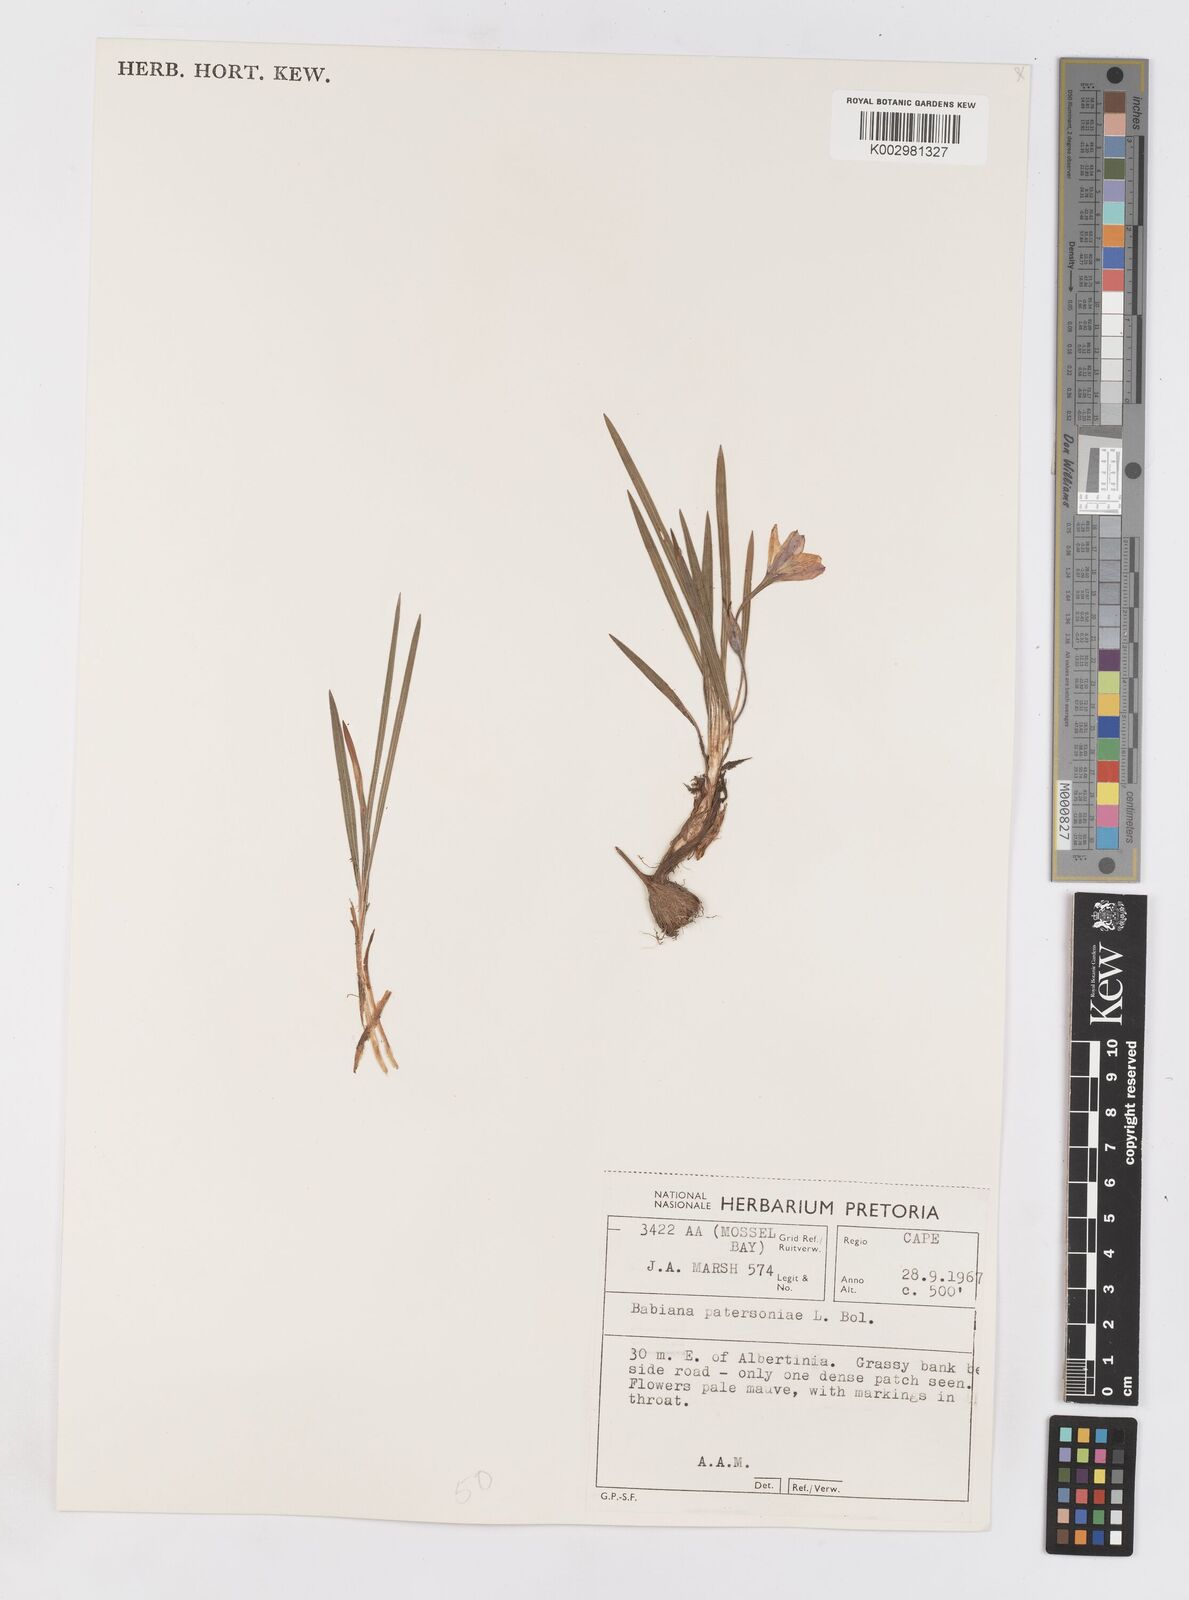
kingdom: Plantae
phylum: Tracheophyta
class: Liliopsida
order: Asparagales
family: Iridaceae
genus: Babiana
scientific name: Babiana patersoniae
